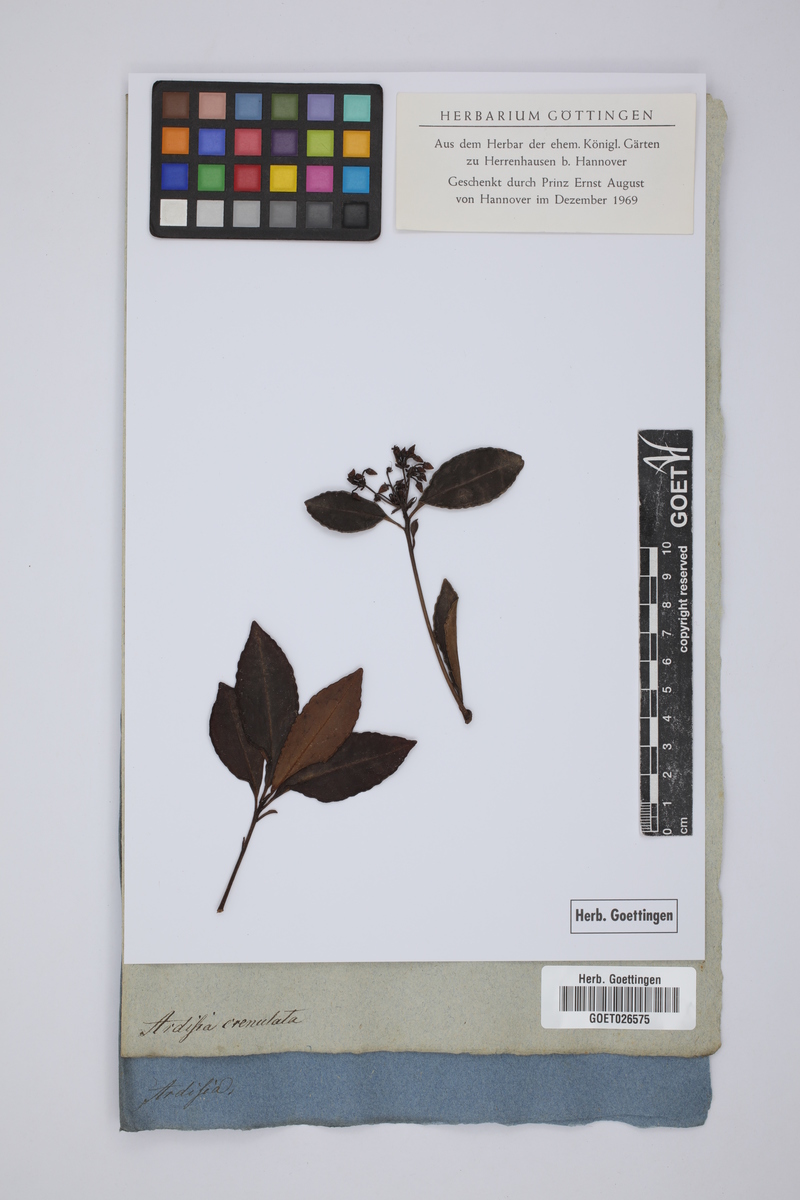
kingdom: Plantae
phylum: Tracheophyta
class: Magnoliopsida
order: Ericales
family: Primulaceae
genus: Parathesis
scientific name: Parathesis crenulata
